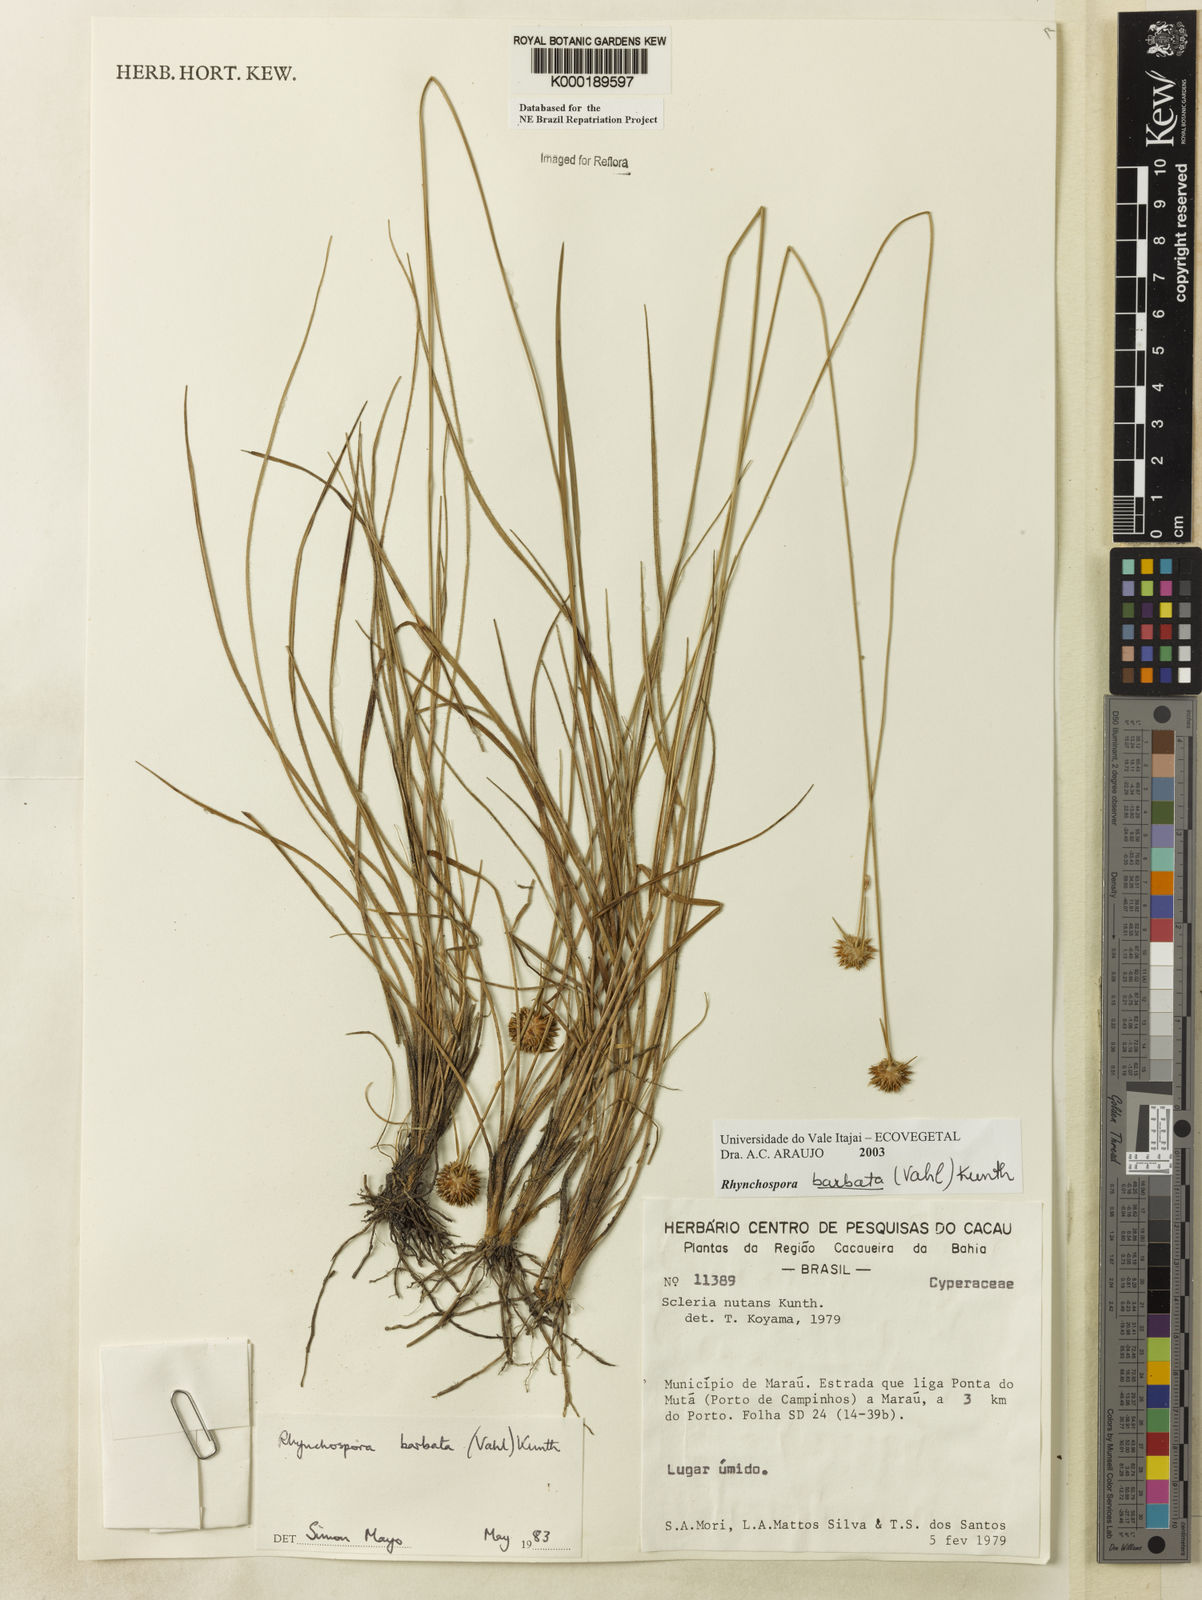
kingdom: Plantae
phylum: Tracheophyta
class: Liliopsida
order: Poales
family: Cyperaceae
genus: Rhynchospora
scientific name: Rhynchospora barbata
